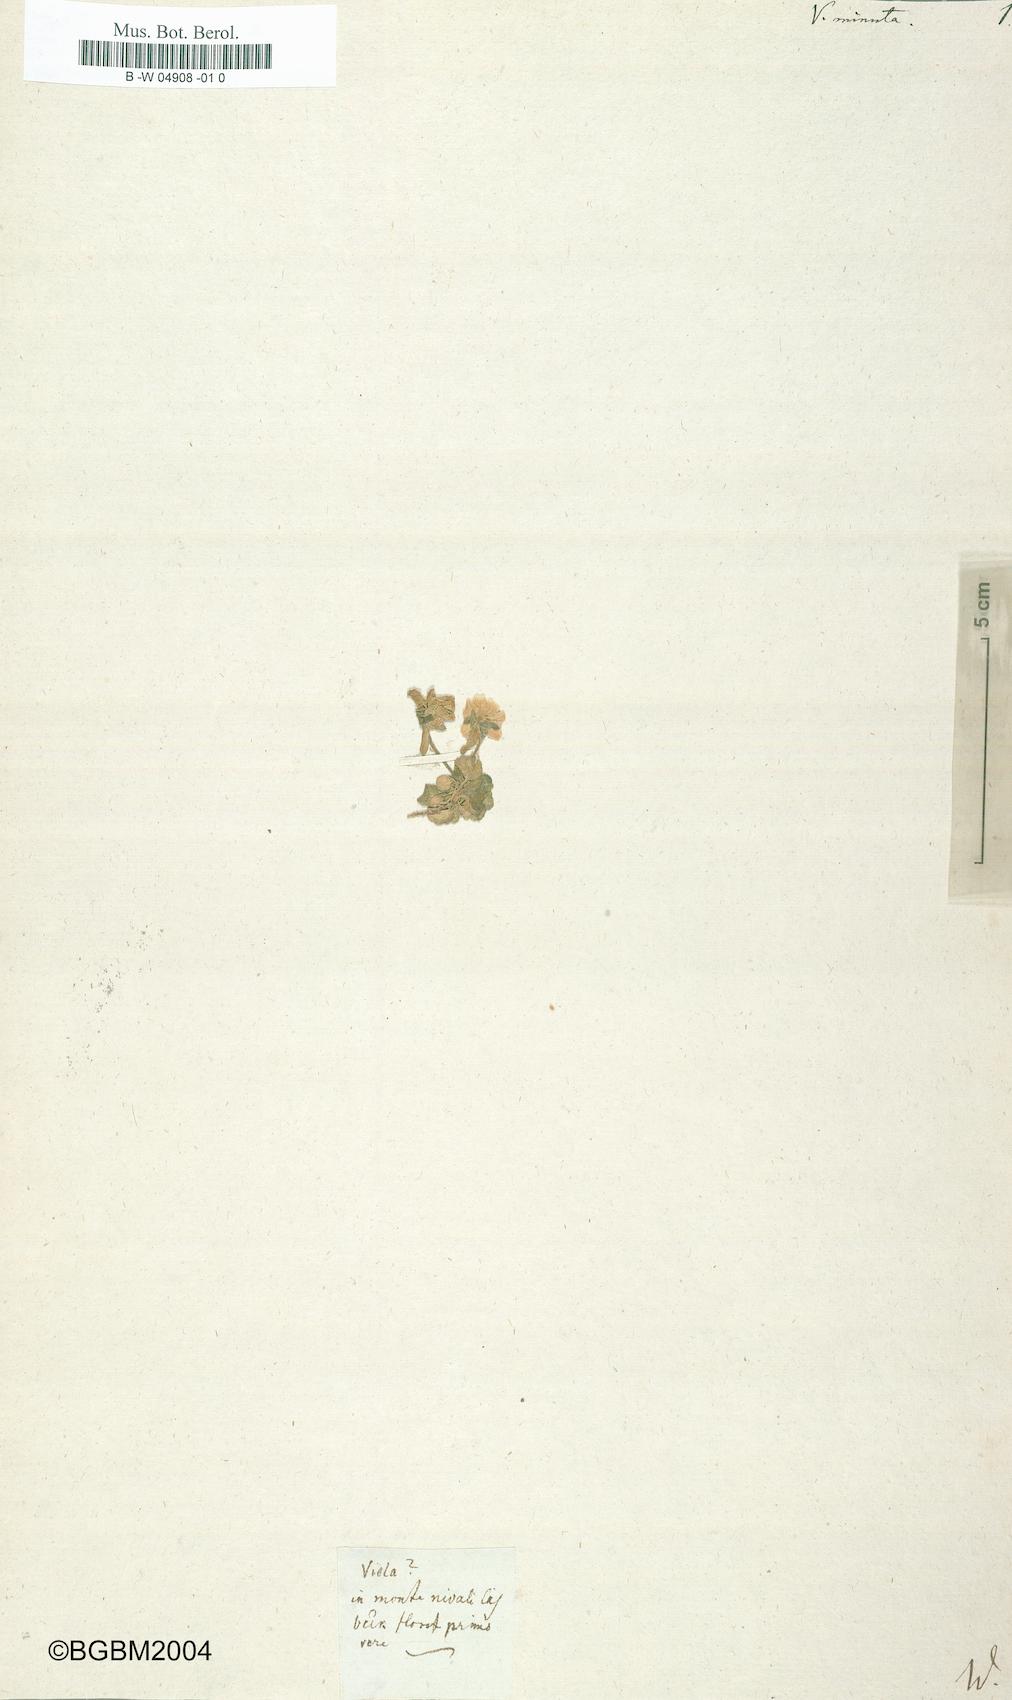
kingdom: Plantae
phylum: Tracheophyta
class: Magnoliopsida
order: Malpighiales
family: Violaceae
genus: Viola
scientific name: Viola minuta
